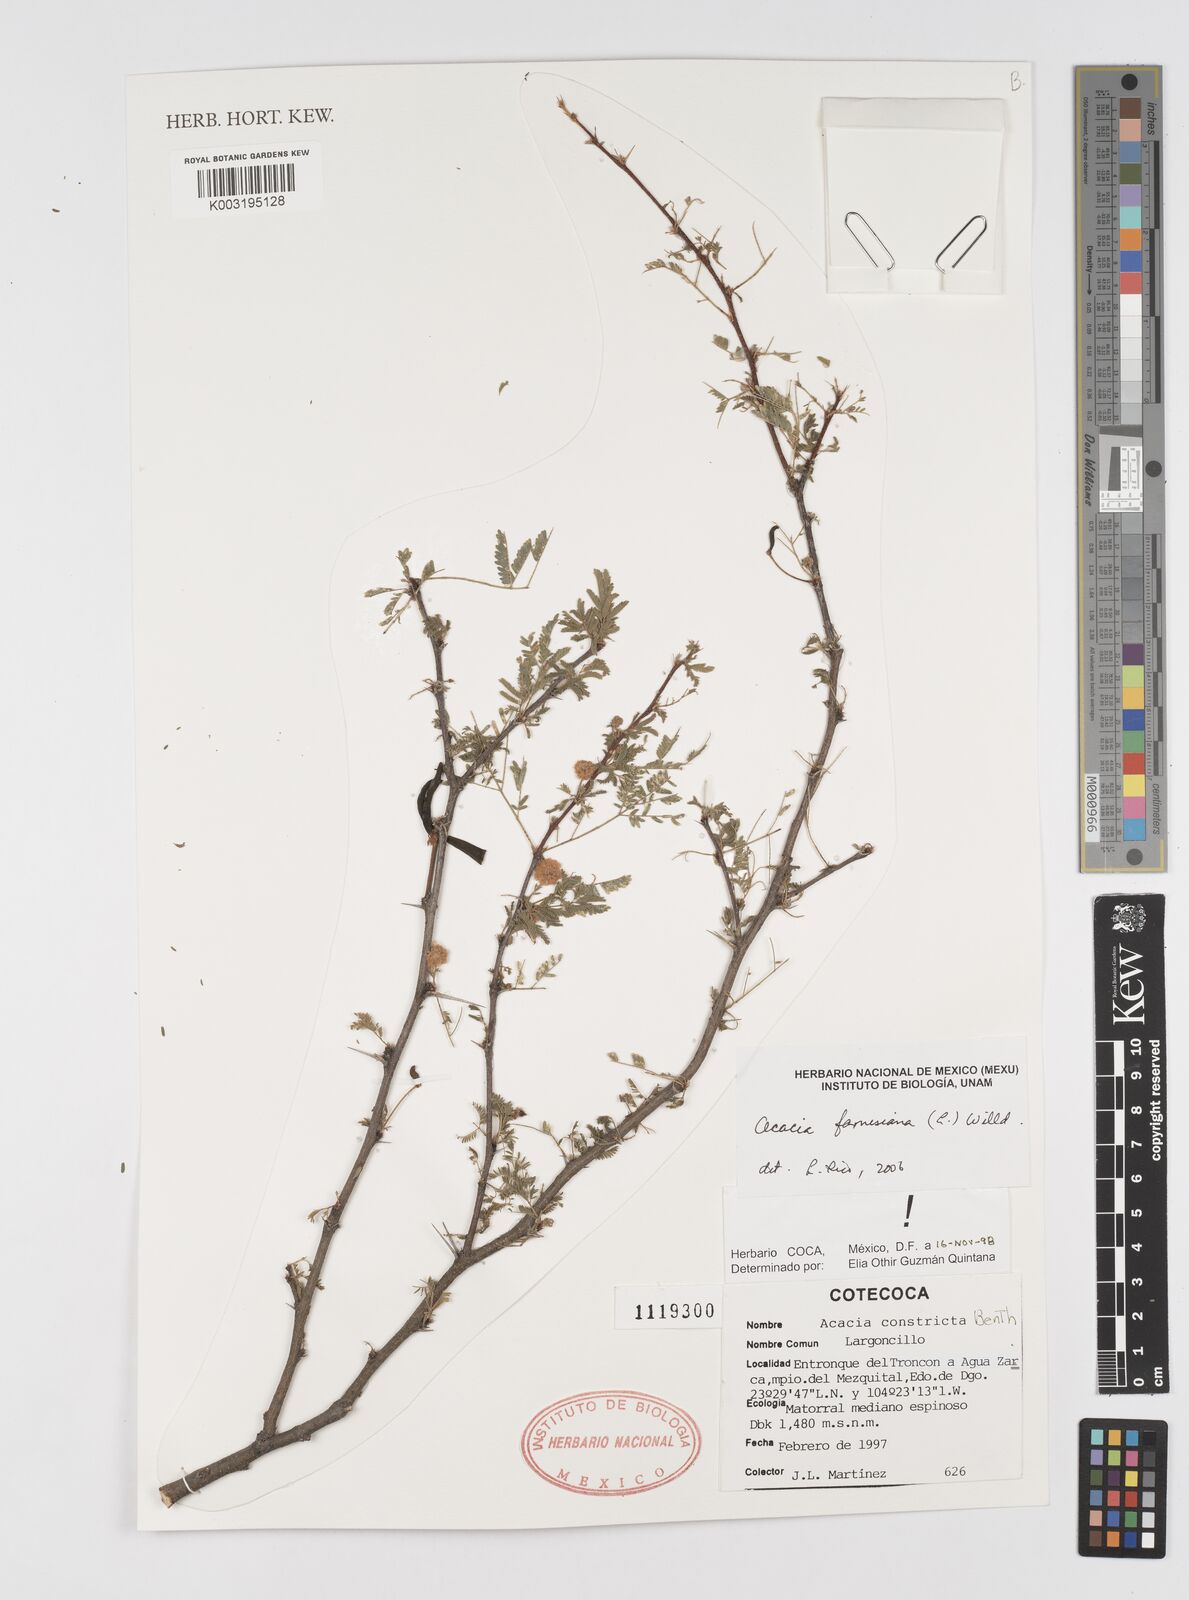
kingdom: Plantae
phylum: Tracheophyta
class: Magnoliopsida
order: Fabales
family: Fabaceae
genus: Vachellia
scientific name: Vachellia farnesiana
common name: Sweet acacia
